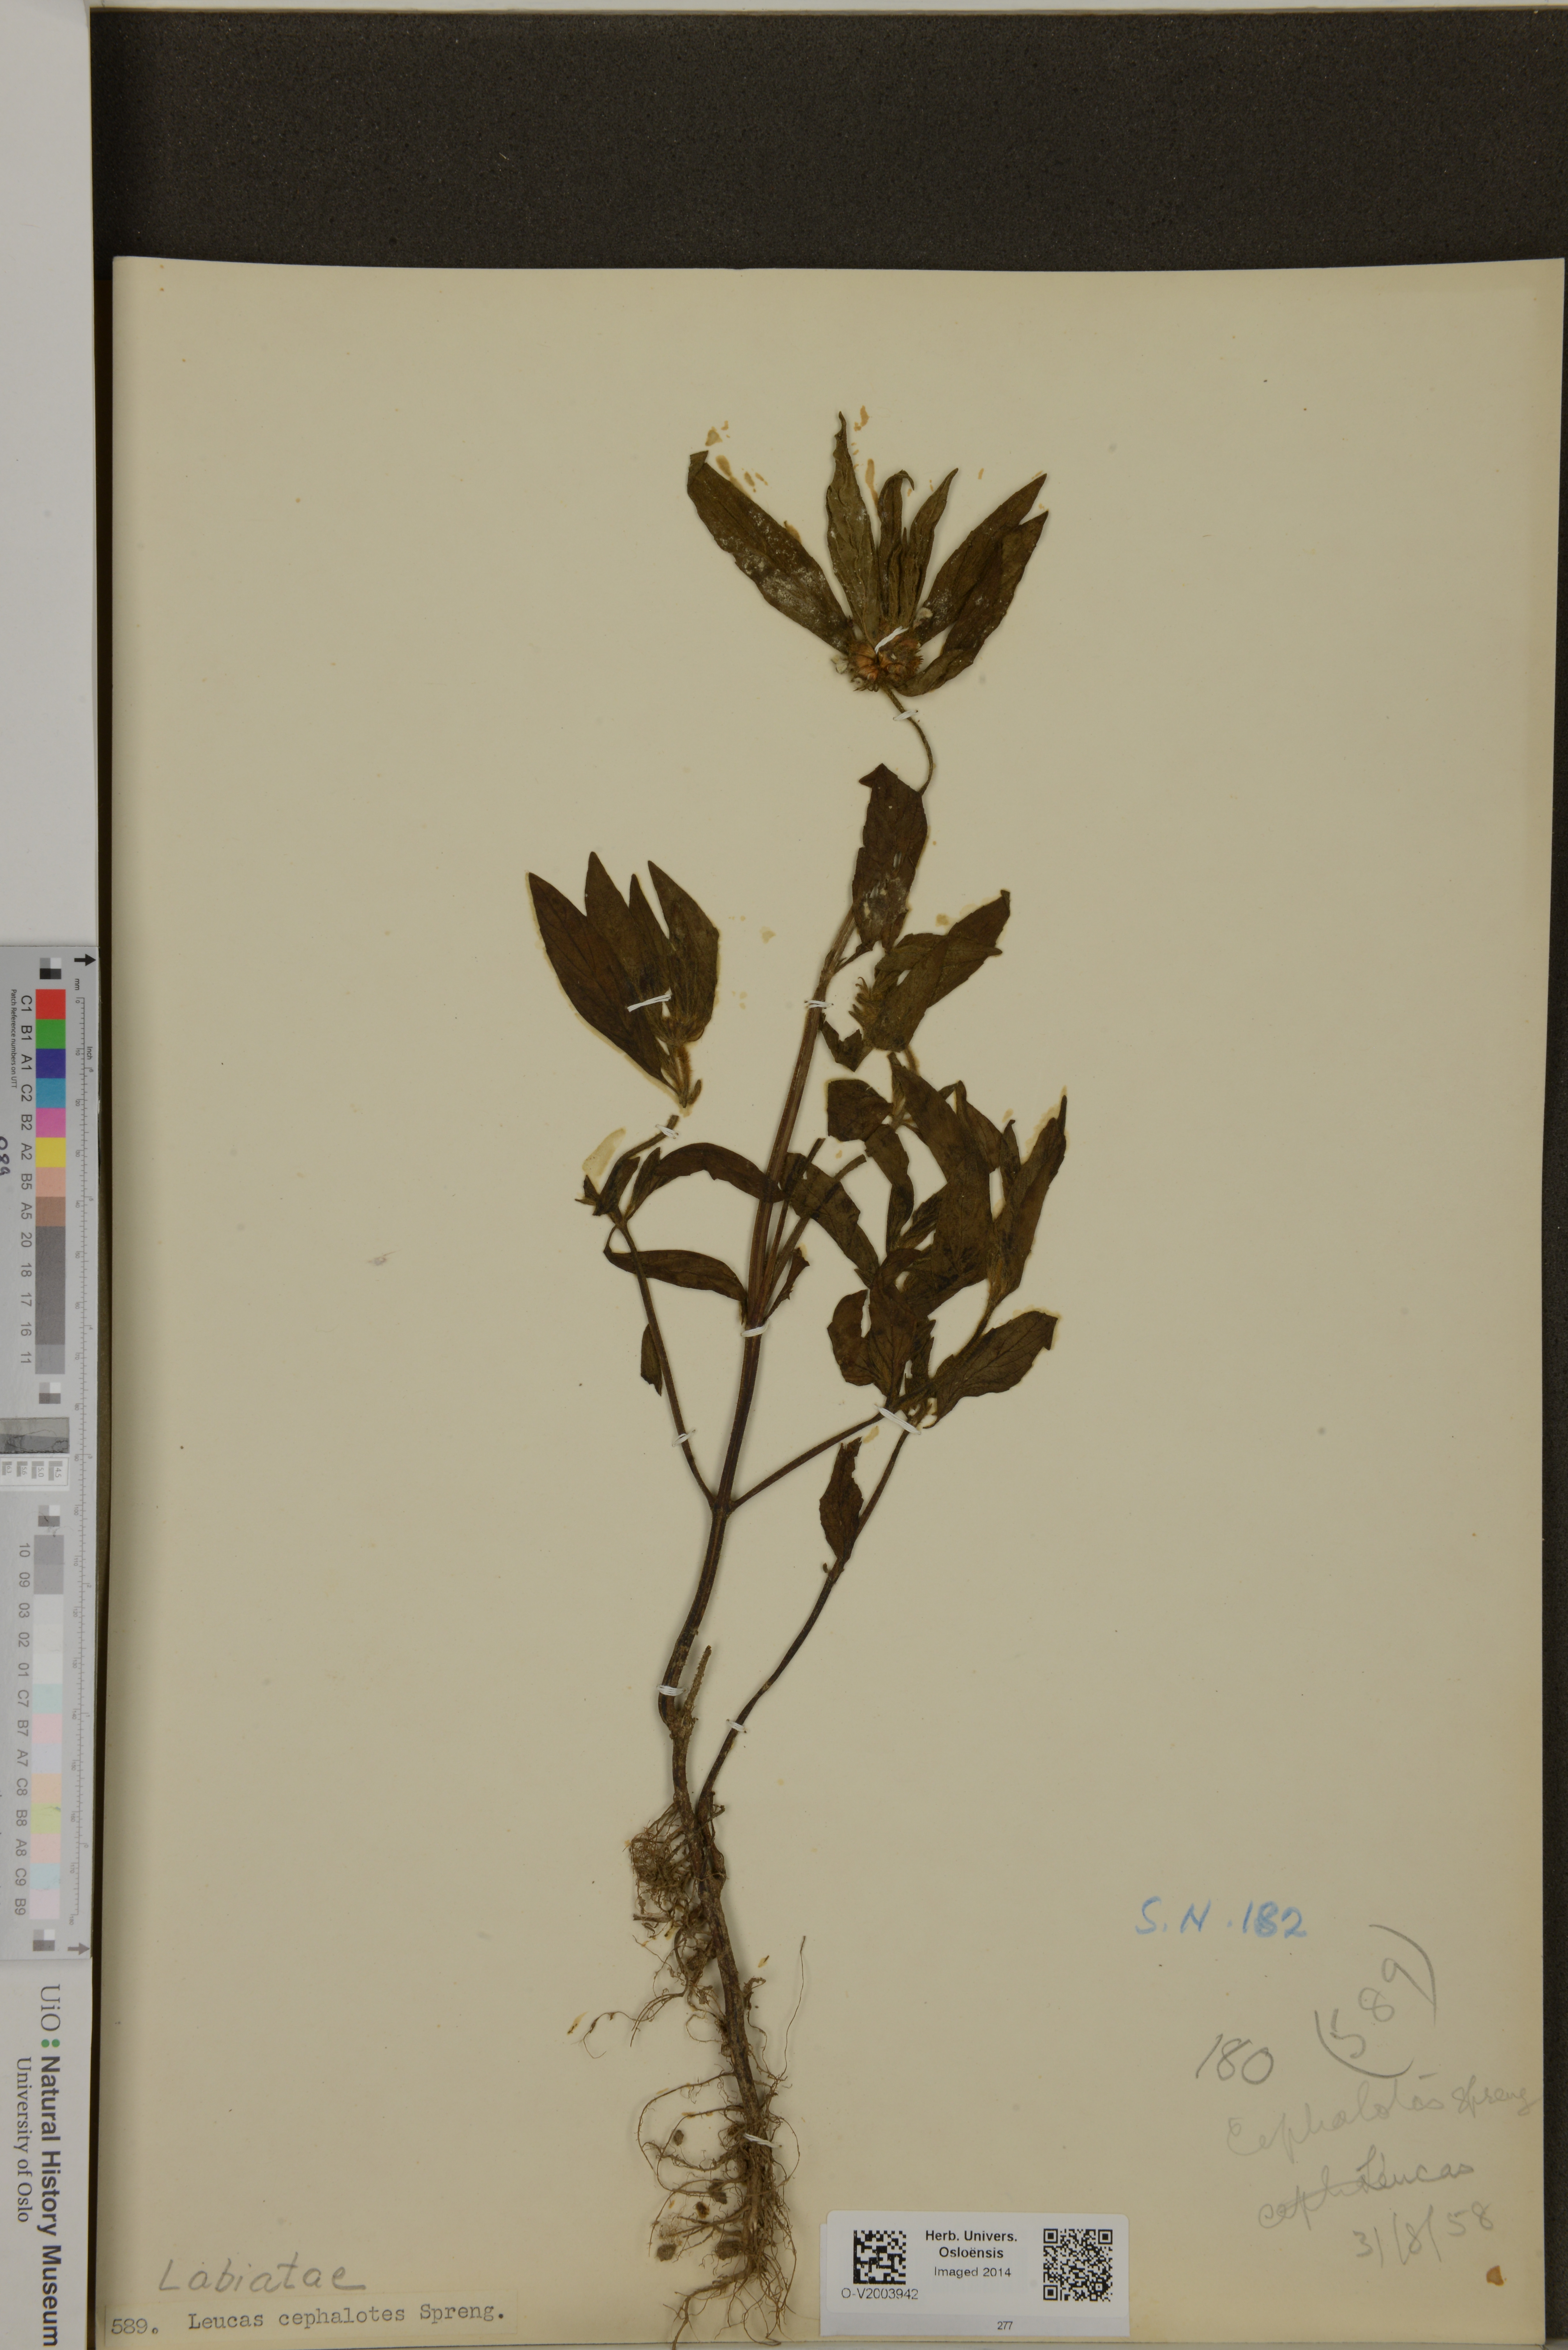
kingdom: Plantae
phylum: Tracheophyta
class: Magnoliopsida
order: Lamiales
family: Lamiaceae
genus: Leucas
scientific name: Leucas cephalotes
